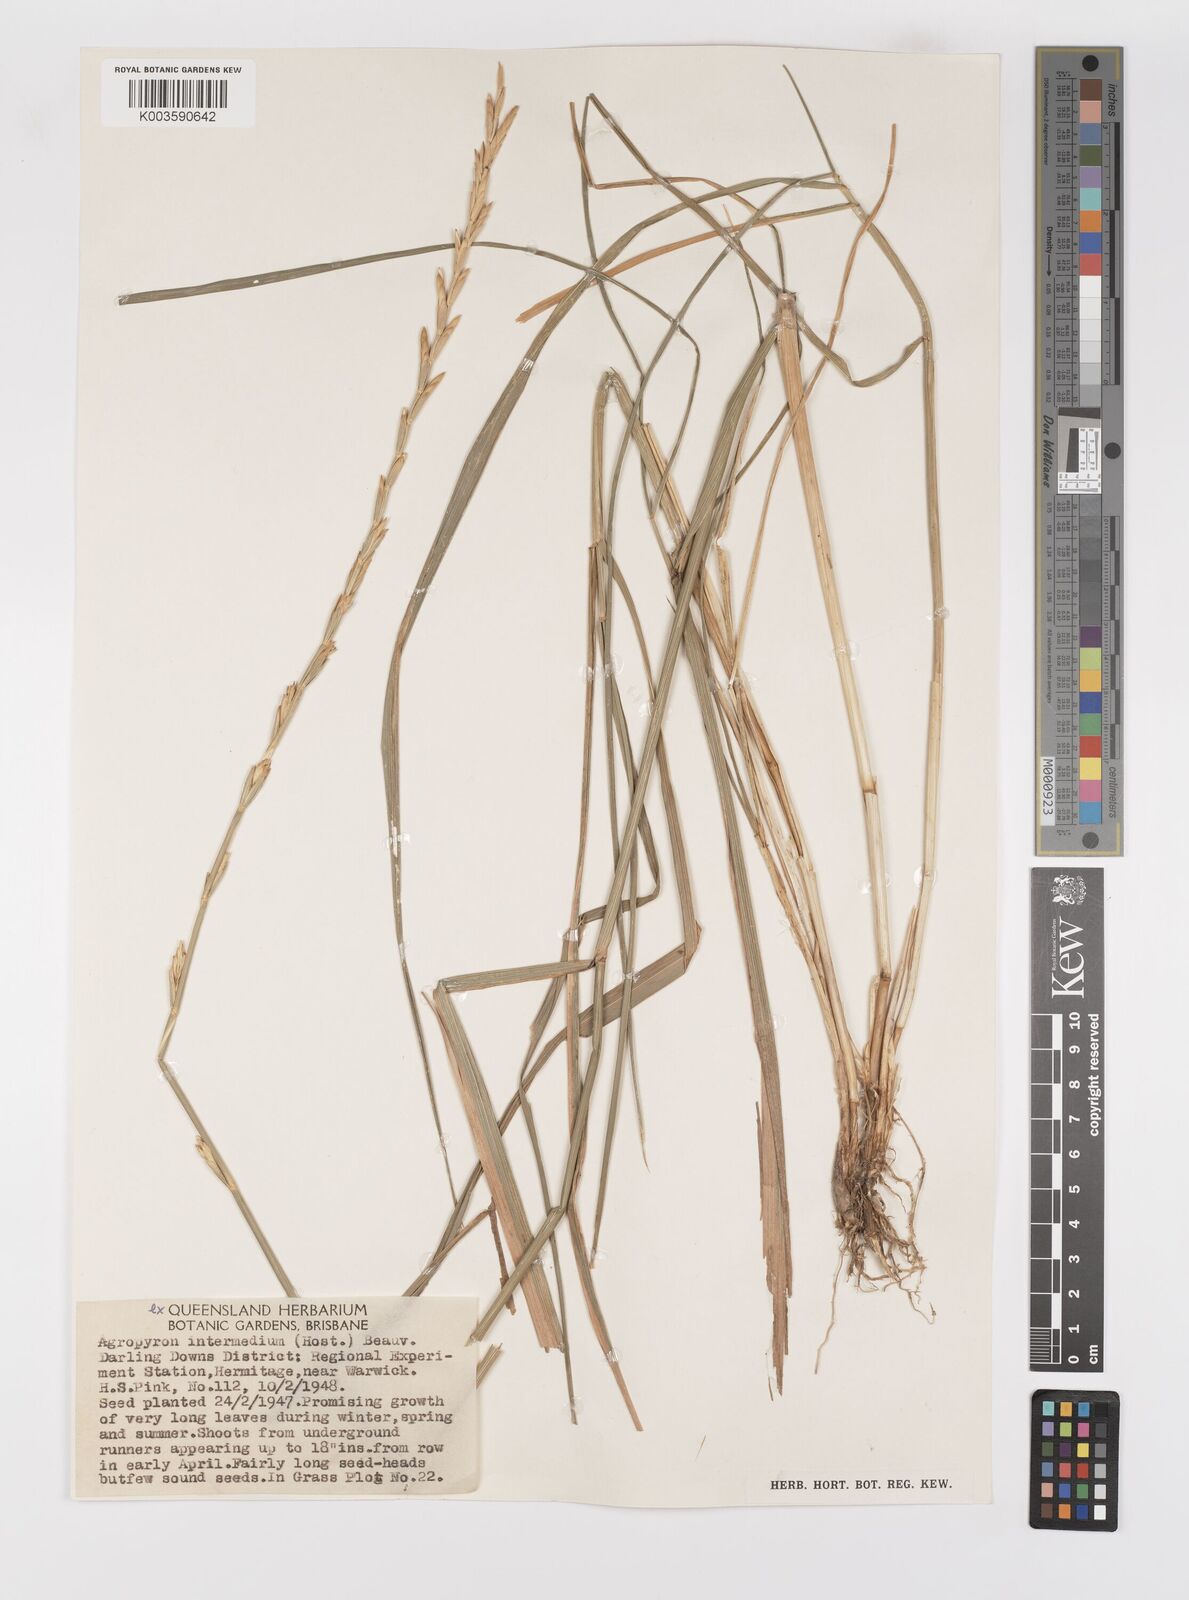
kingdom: Plantae
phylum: Tracheophyta
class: Liliopsida
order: Poales
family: Poaceae
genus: Thinopyrum
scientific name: Thinopyrum intermedium
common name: Intermediate wheatgrass
